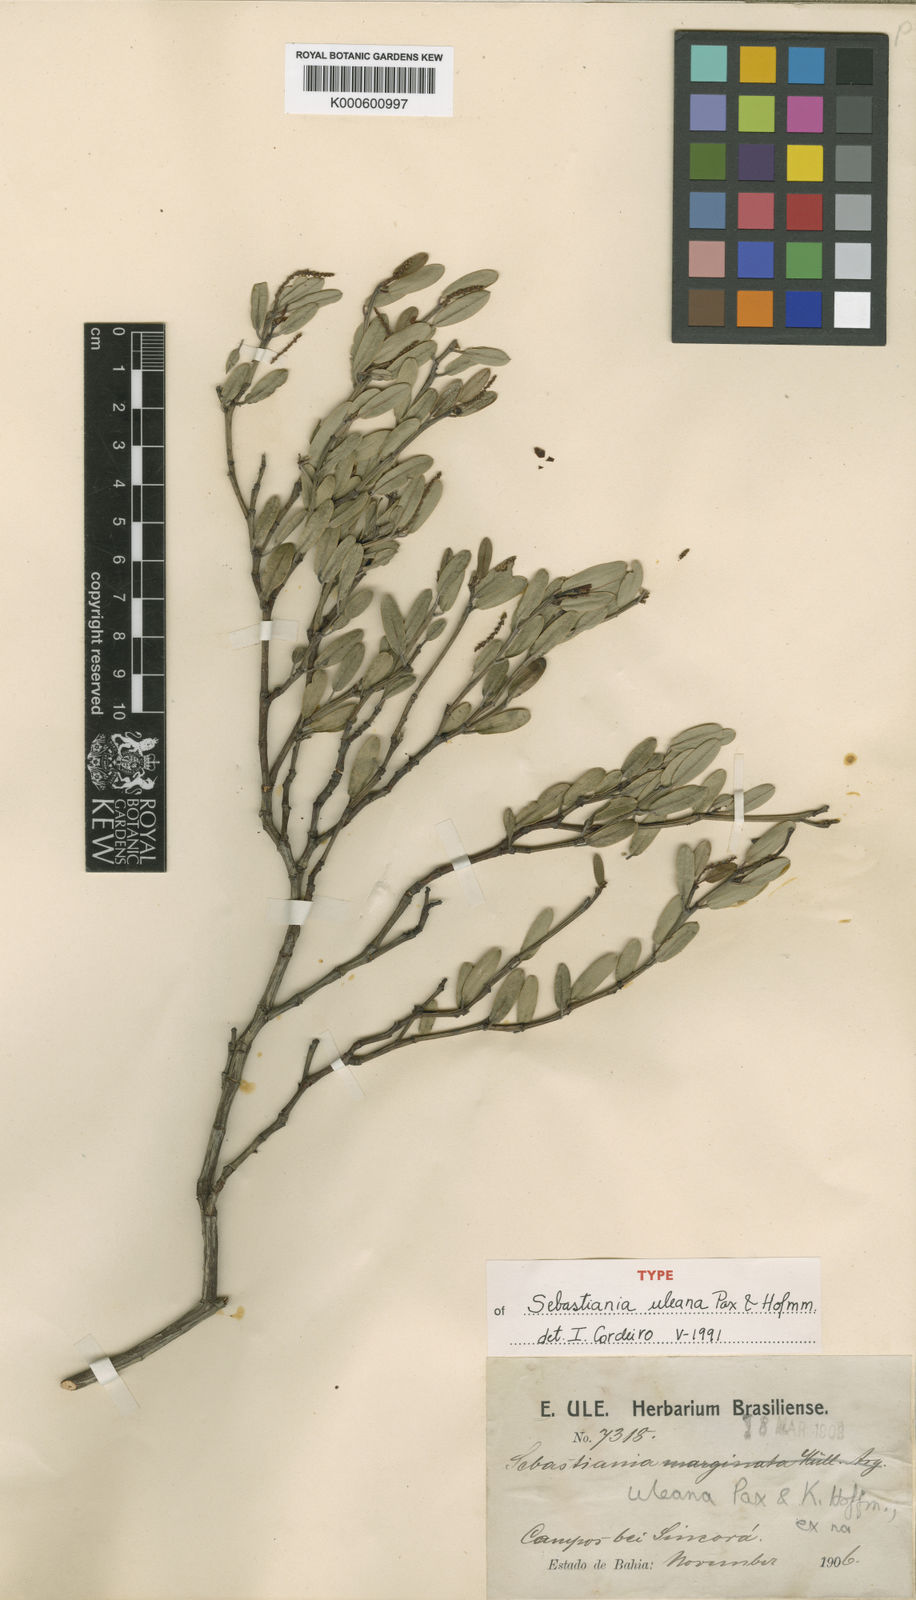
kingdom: Plantae
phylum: Tracheophyta
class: Magnoliopsida
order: Malpighiales
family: Euphorbiaceae
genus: Microstachys
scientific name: Microstachys uleana
